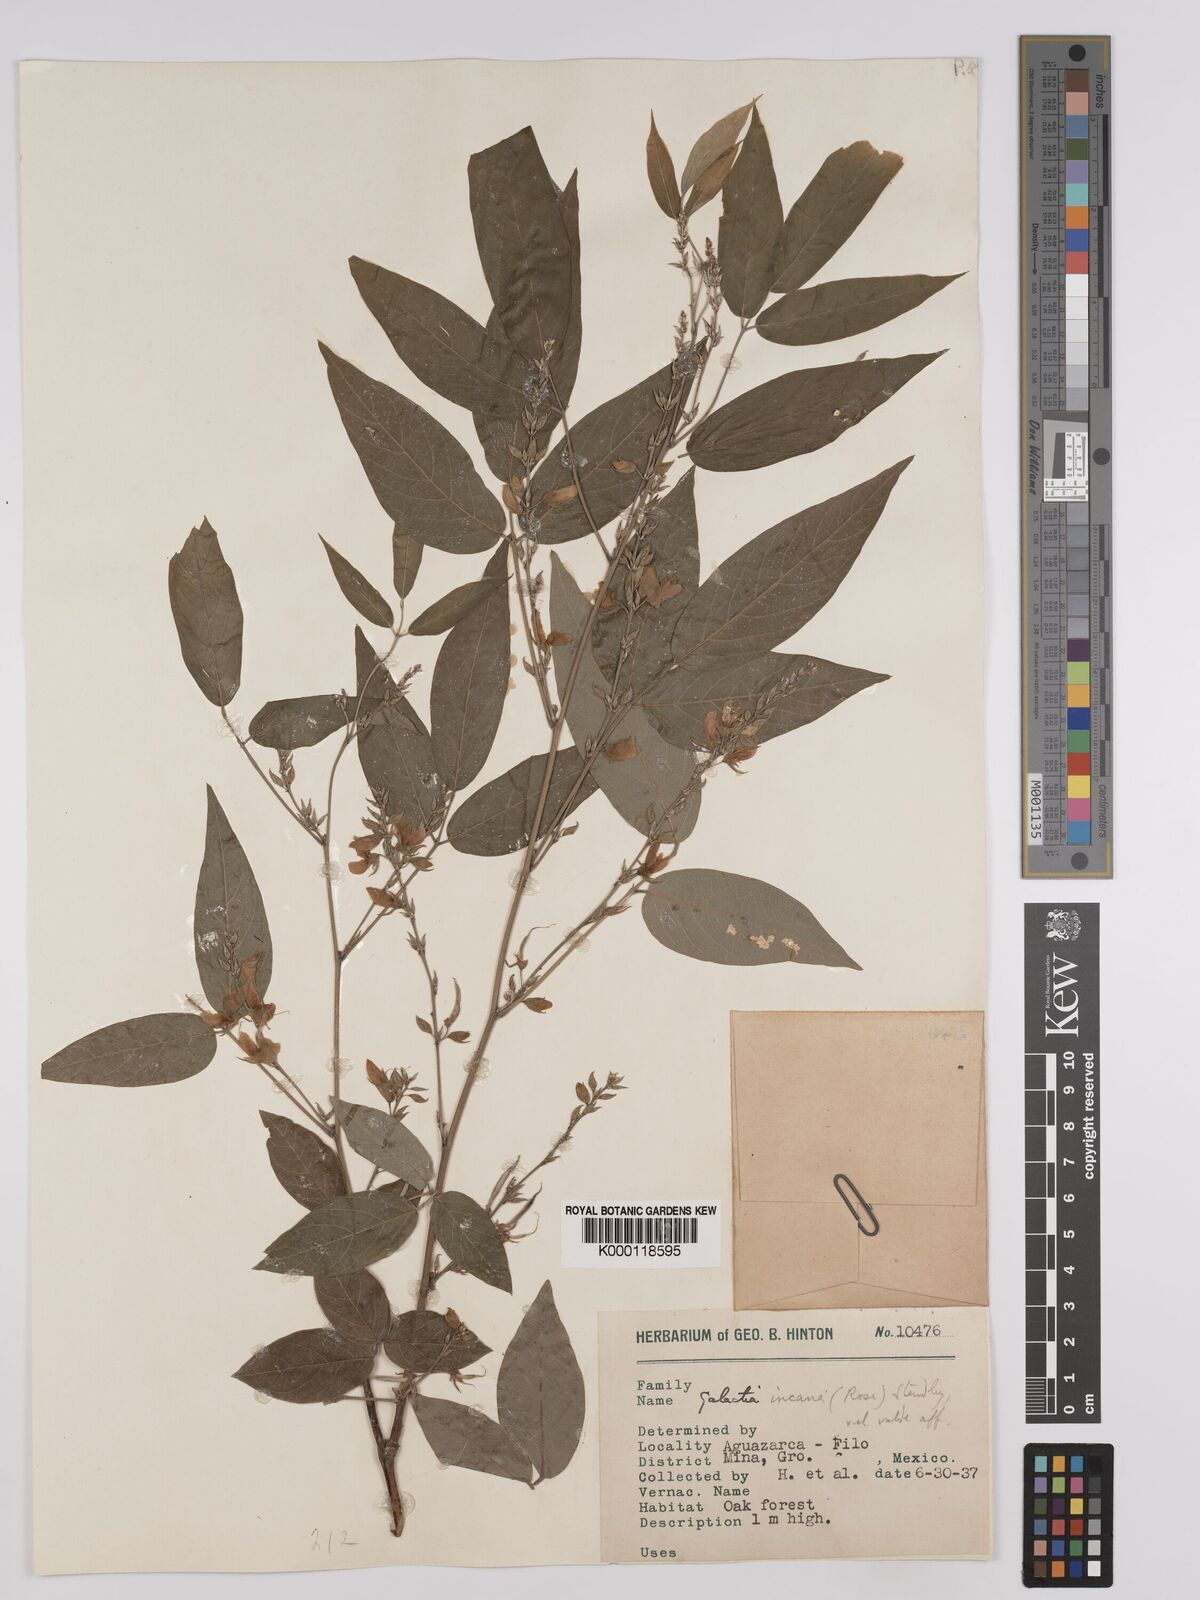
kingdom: Plantae
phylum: Tracheophyta
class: Magnoliopsida
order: Fabales
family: Fabaceae
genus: Galactia
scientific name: Galactia incana
